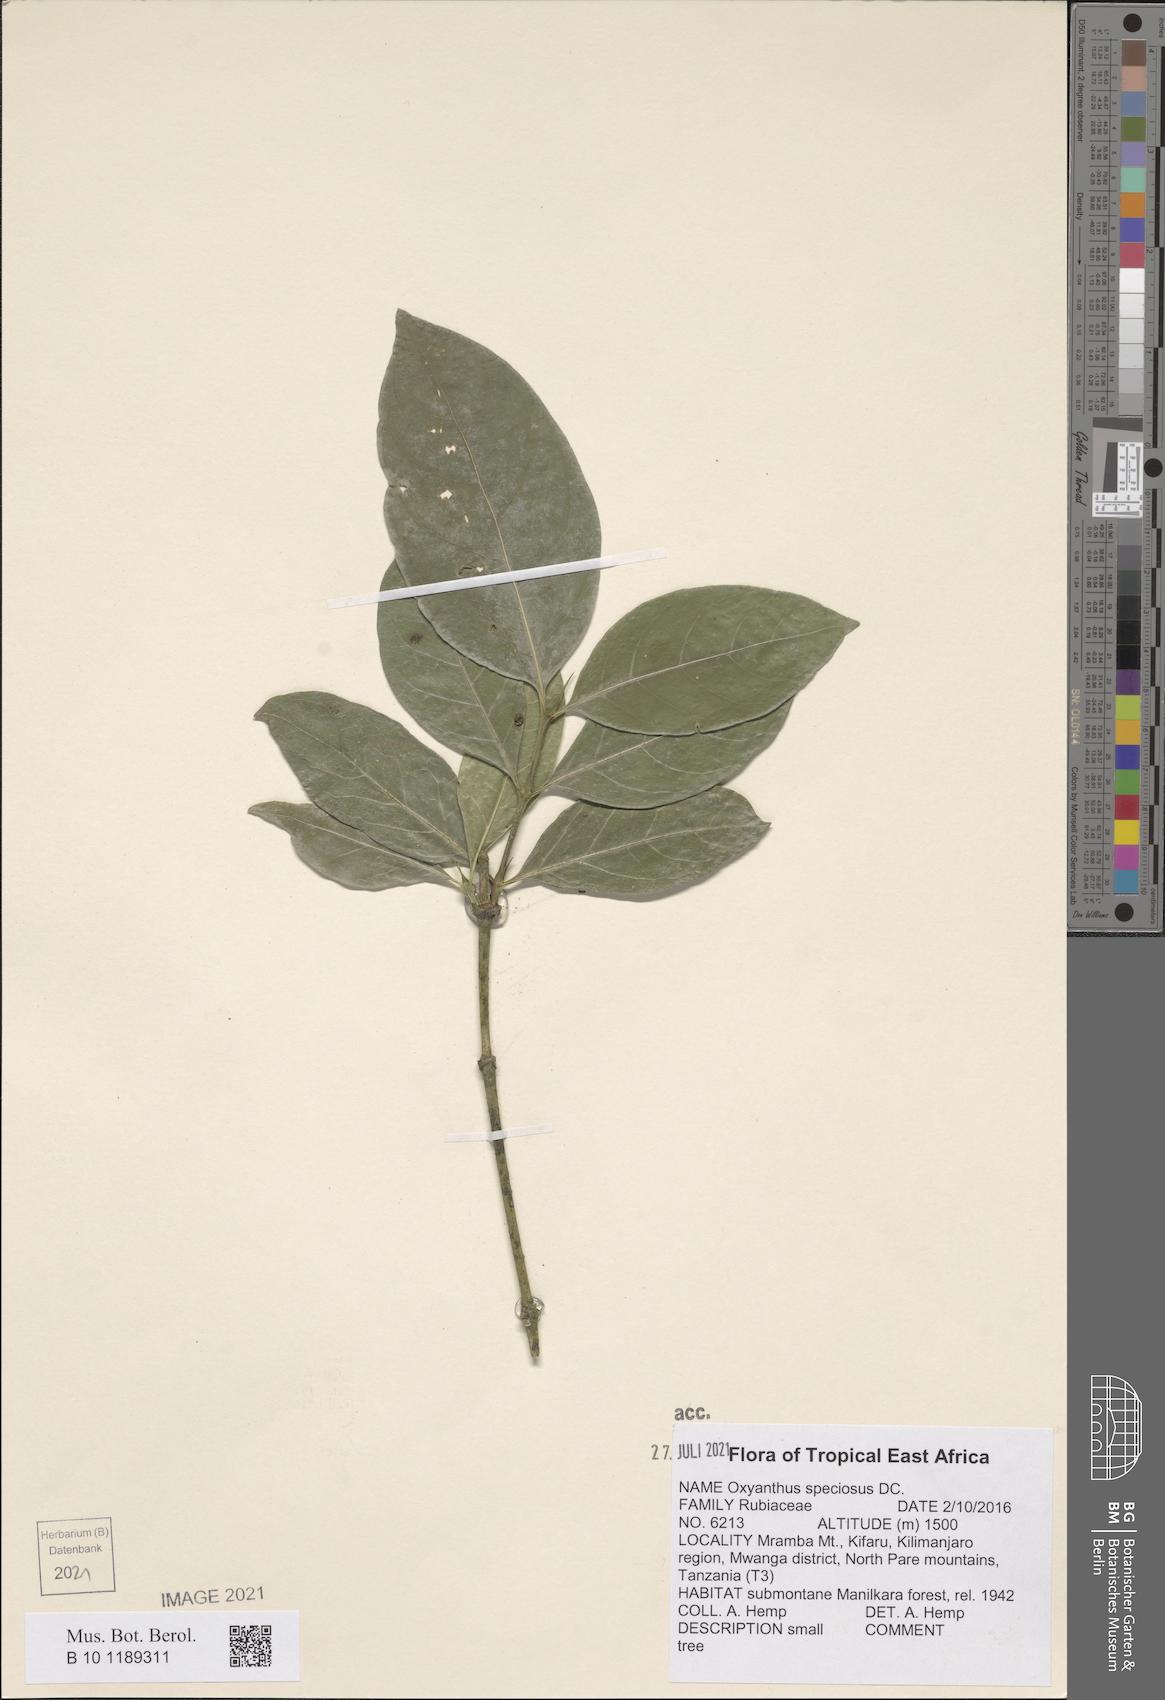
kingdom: Plantae
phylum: Tracheophyta
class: Magnoliopsida
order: Gentianales
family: Rubiaceae
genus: Oxyanthus
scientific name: Oxyanthus speciosus
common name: Whipstick loquat
